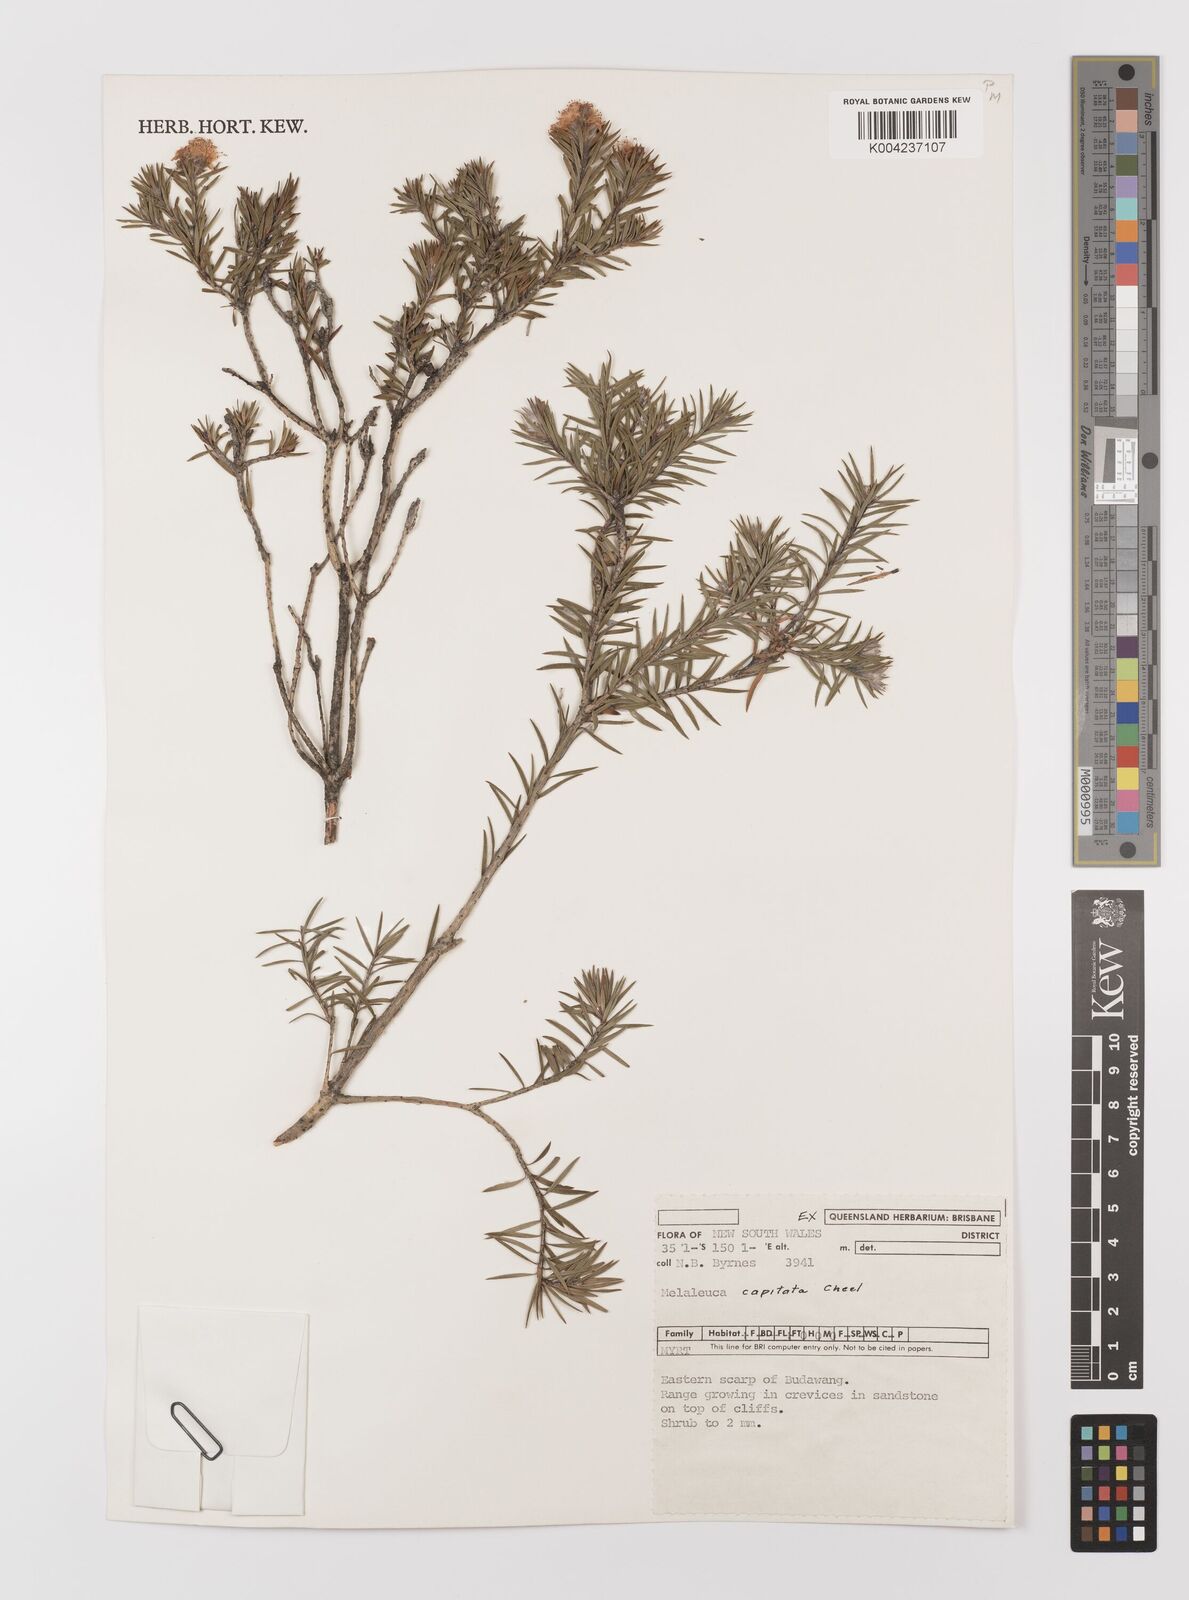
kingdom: Plantae
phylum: Tracheophyta
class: Magnoliopsida
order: Myrtales
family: Myrtaceae
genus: Melaleuca
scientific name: Melaleuca capitata
